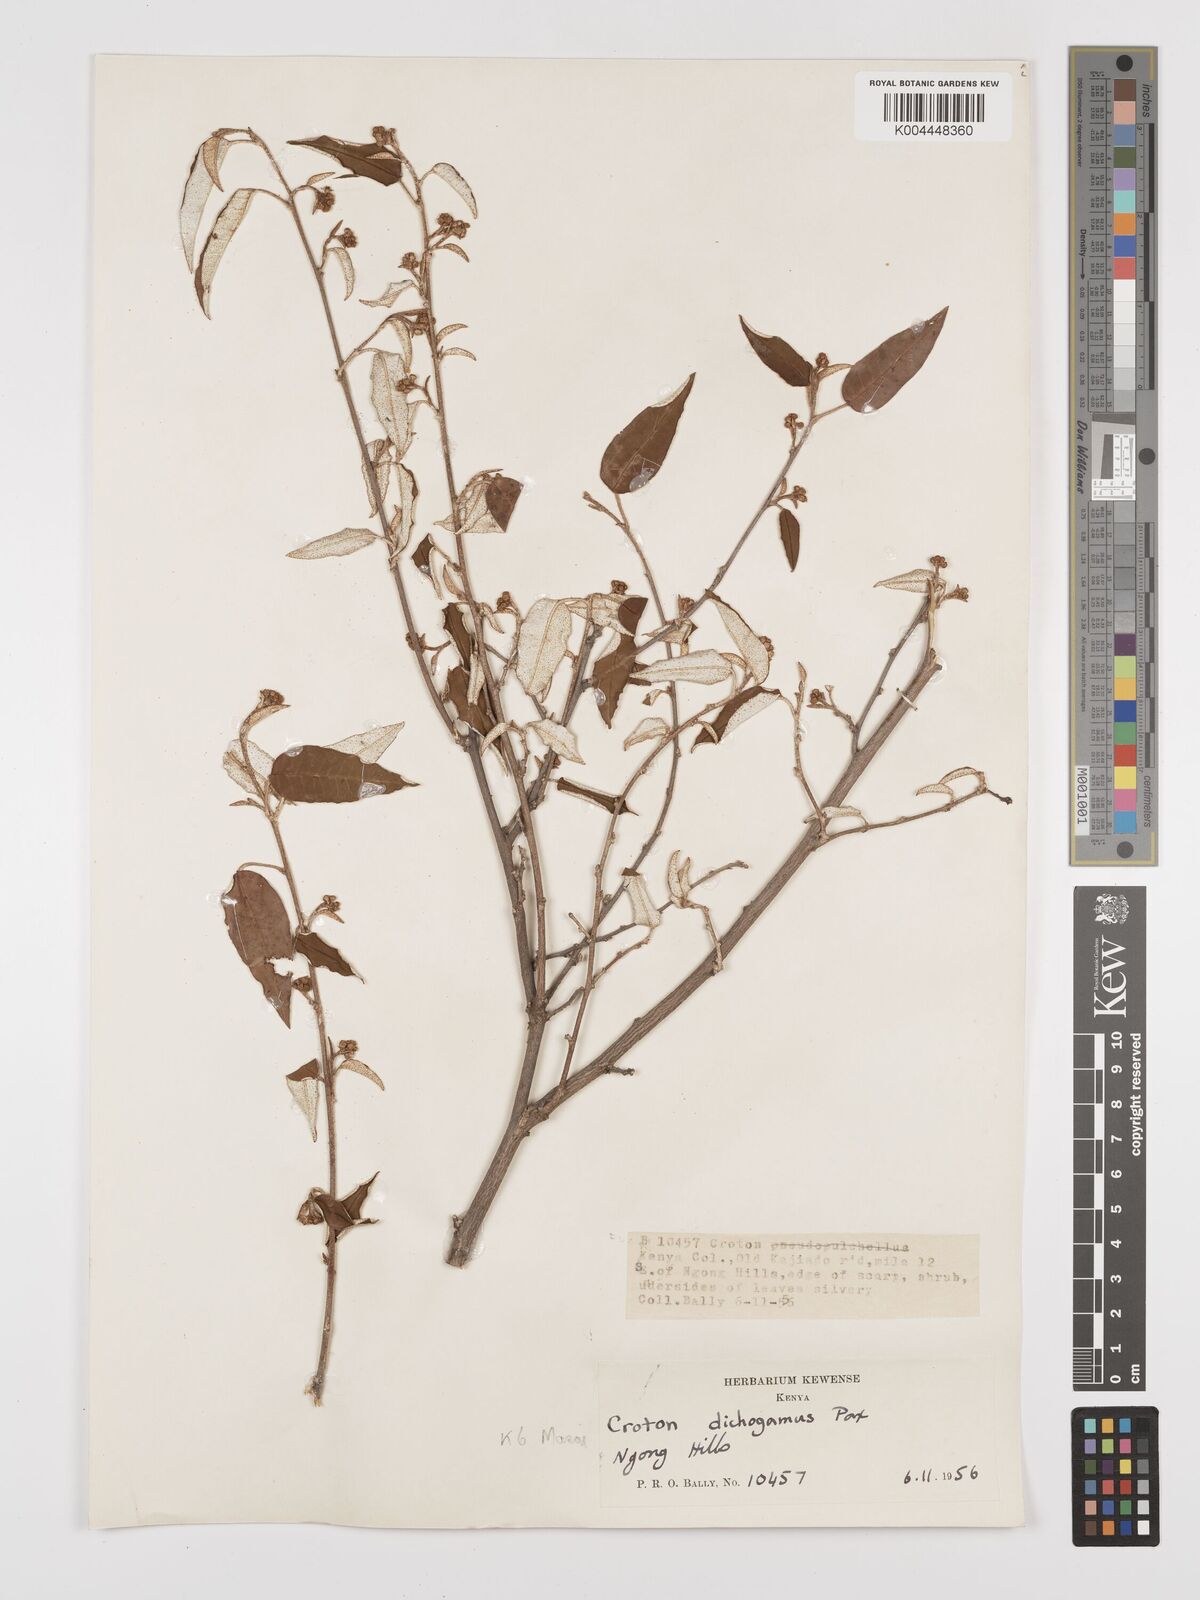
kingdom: Plantae
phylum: Tracheophyta
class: Magnoliopsida
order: Malpighiales
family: Euphorbiaceae
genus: Croton
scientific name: Croton dichogamus
